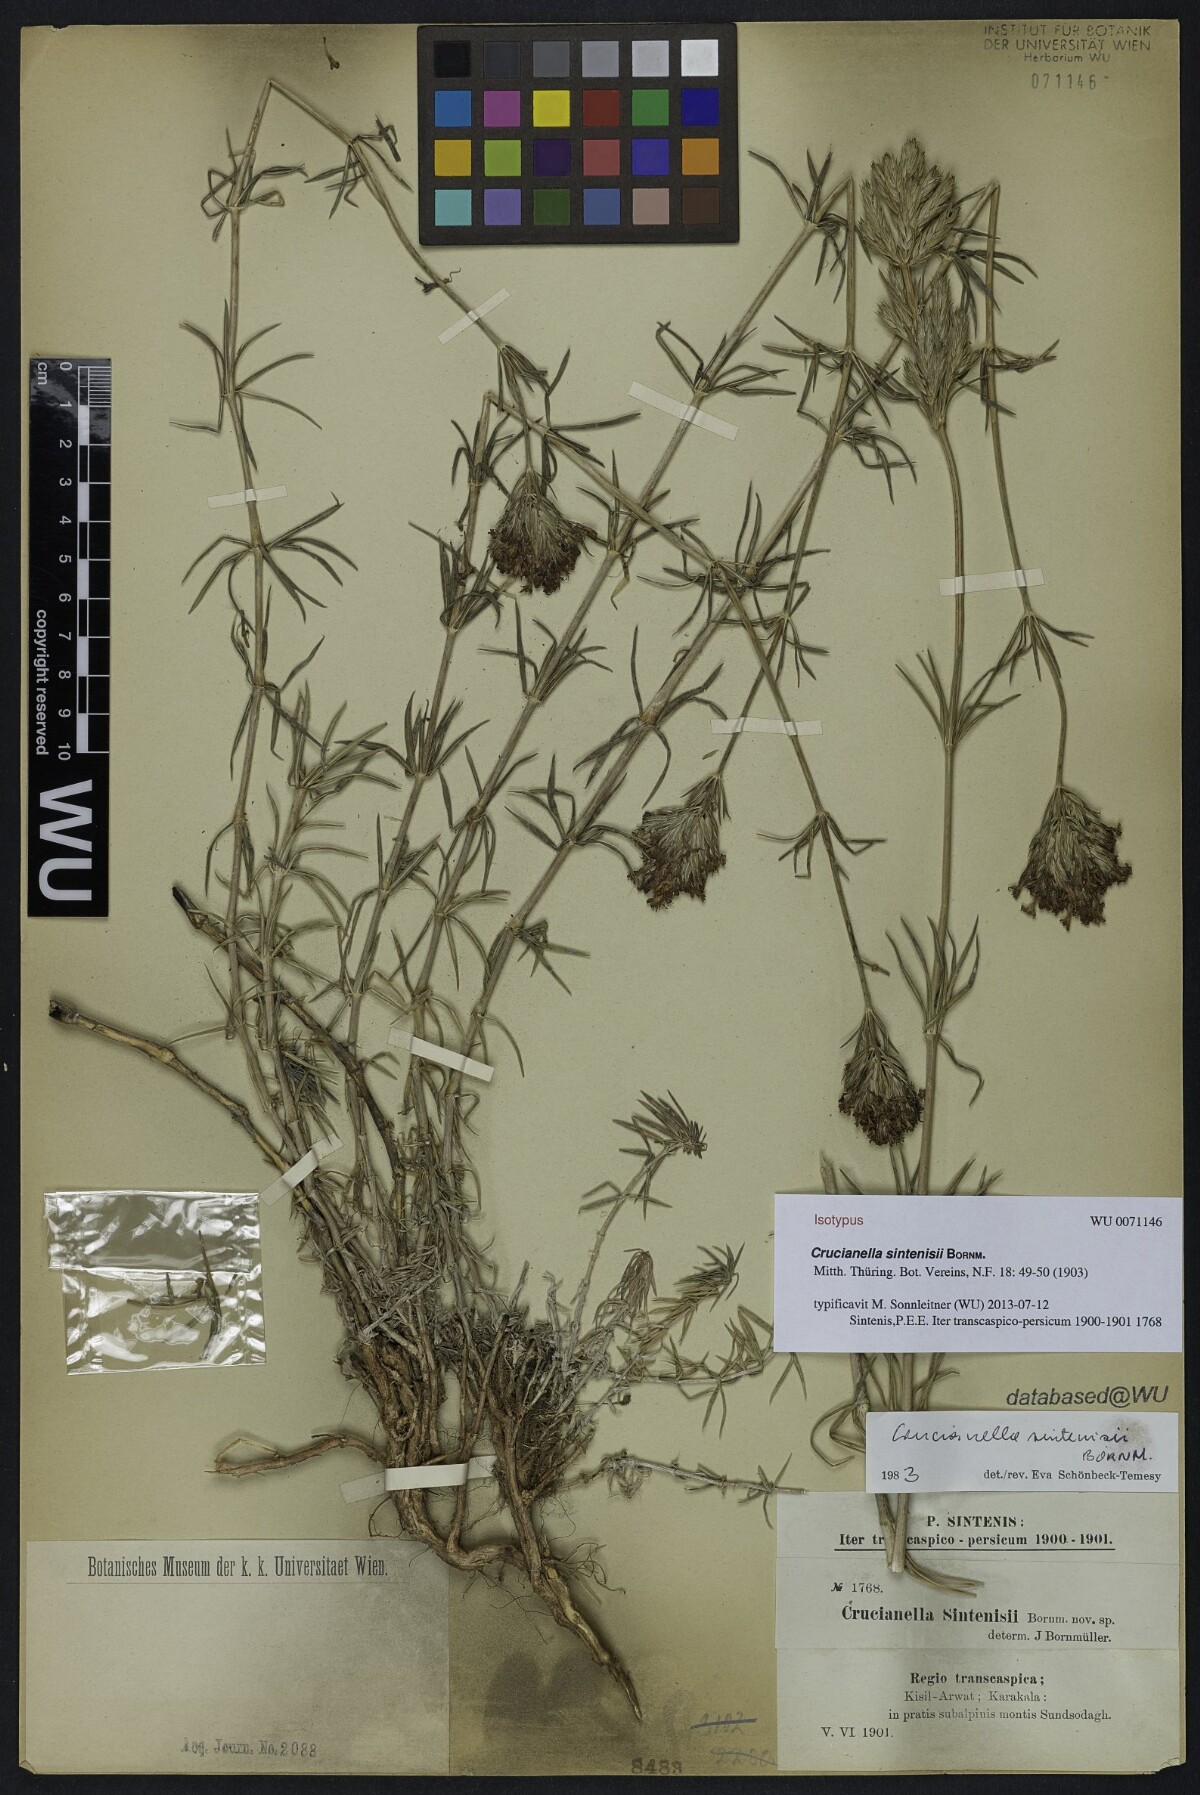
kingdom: Plantae
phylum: Tracheophyta
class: Magnoliopsida
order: Gentianales
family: Rubiaceae
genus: Crucianella
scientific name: Crucianella sintenisii
